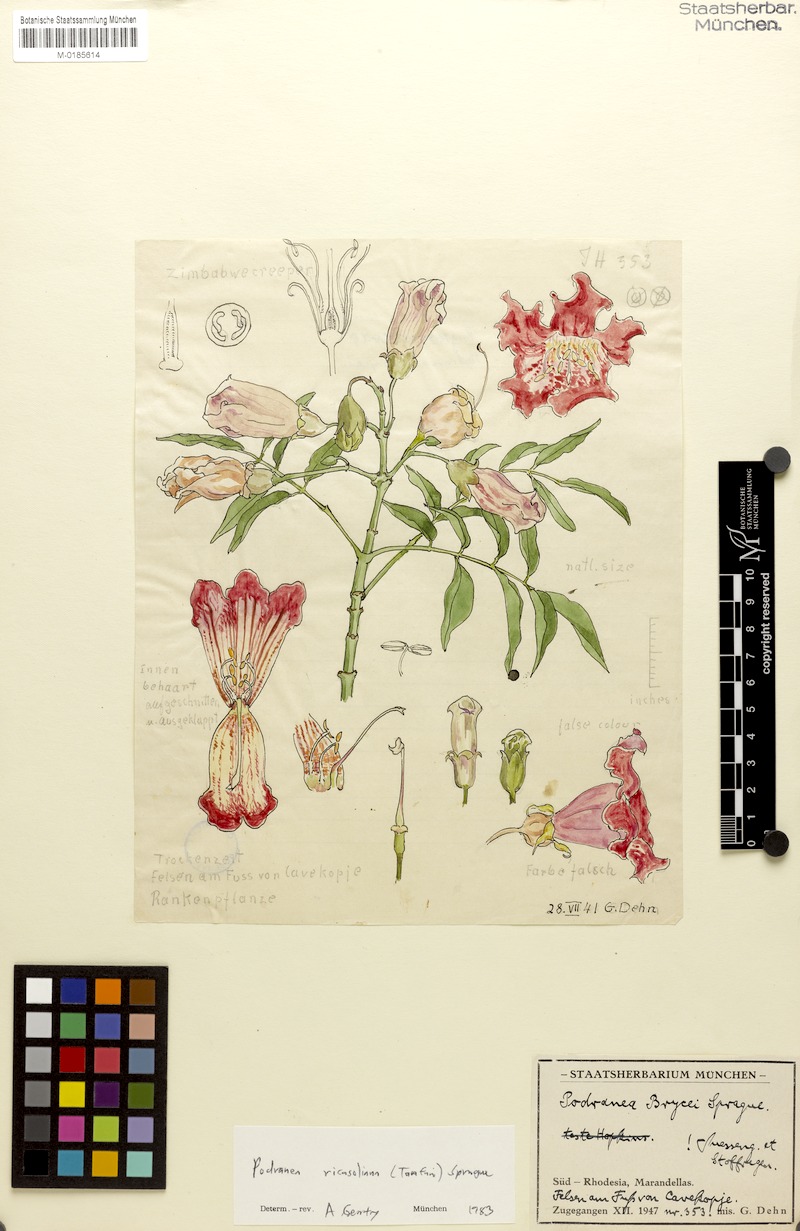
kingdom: Plantae
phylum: Tracheophyta
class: Magnoliopsida
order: Lamiales
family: Bignoniaceae
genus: Podranea
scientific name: Podranea ricasoliana
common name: Zimbabwe creeper
